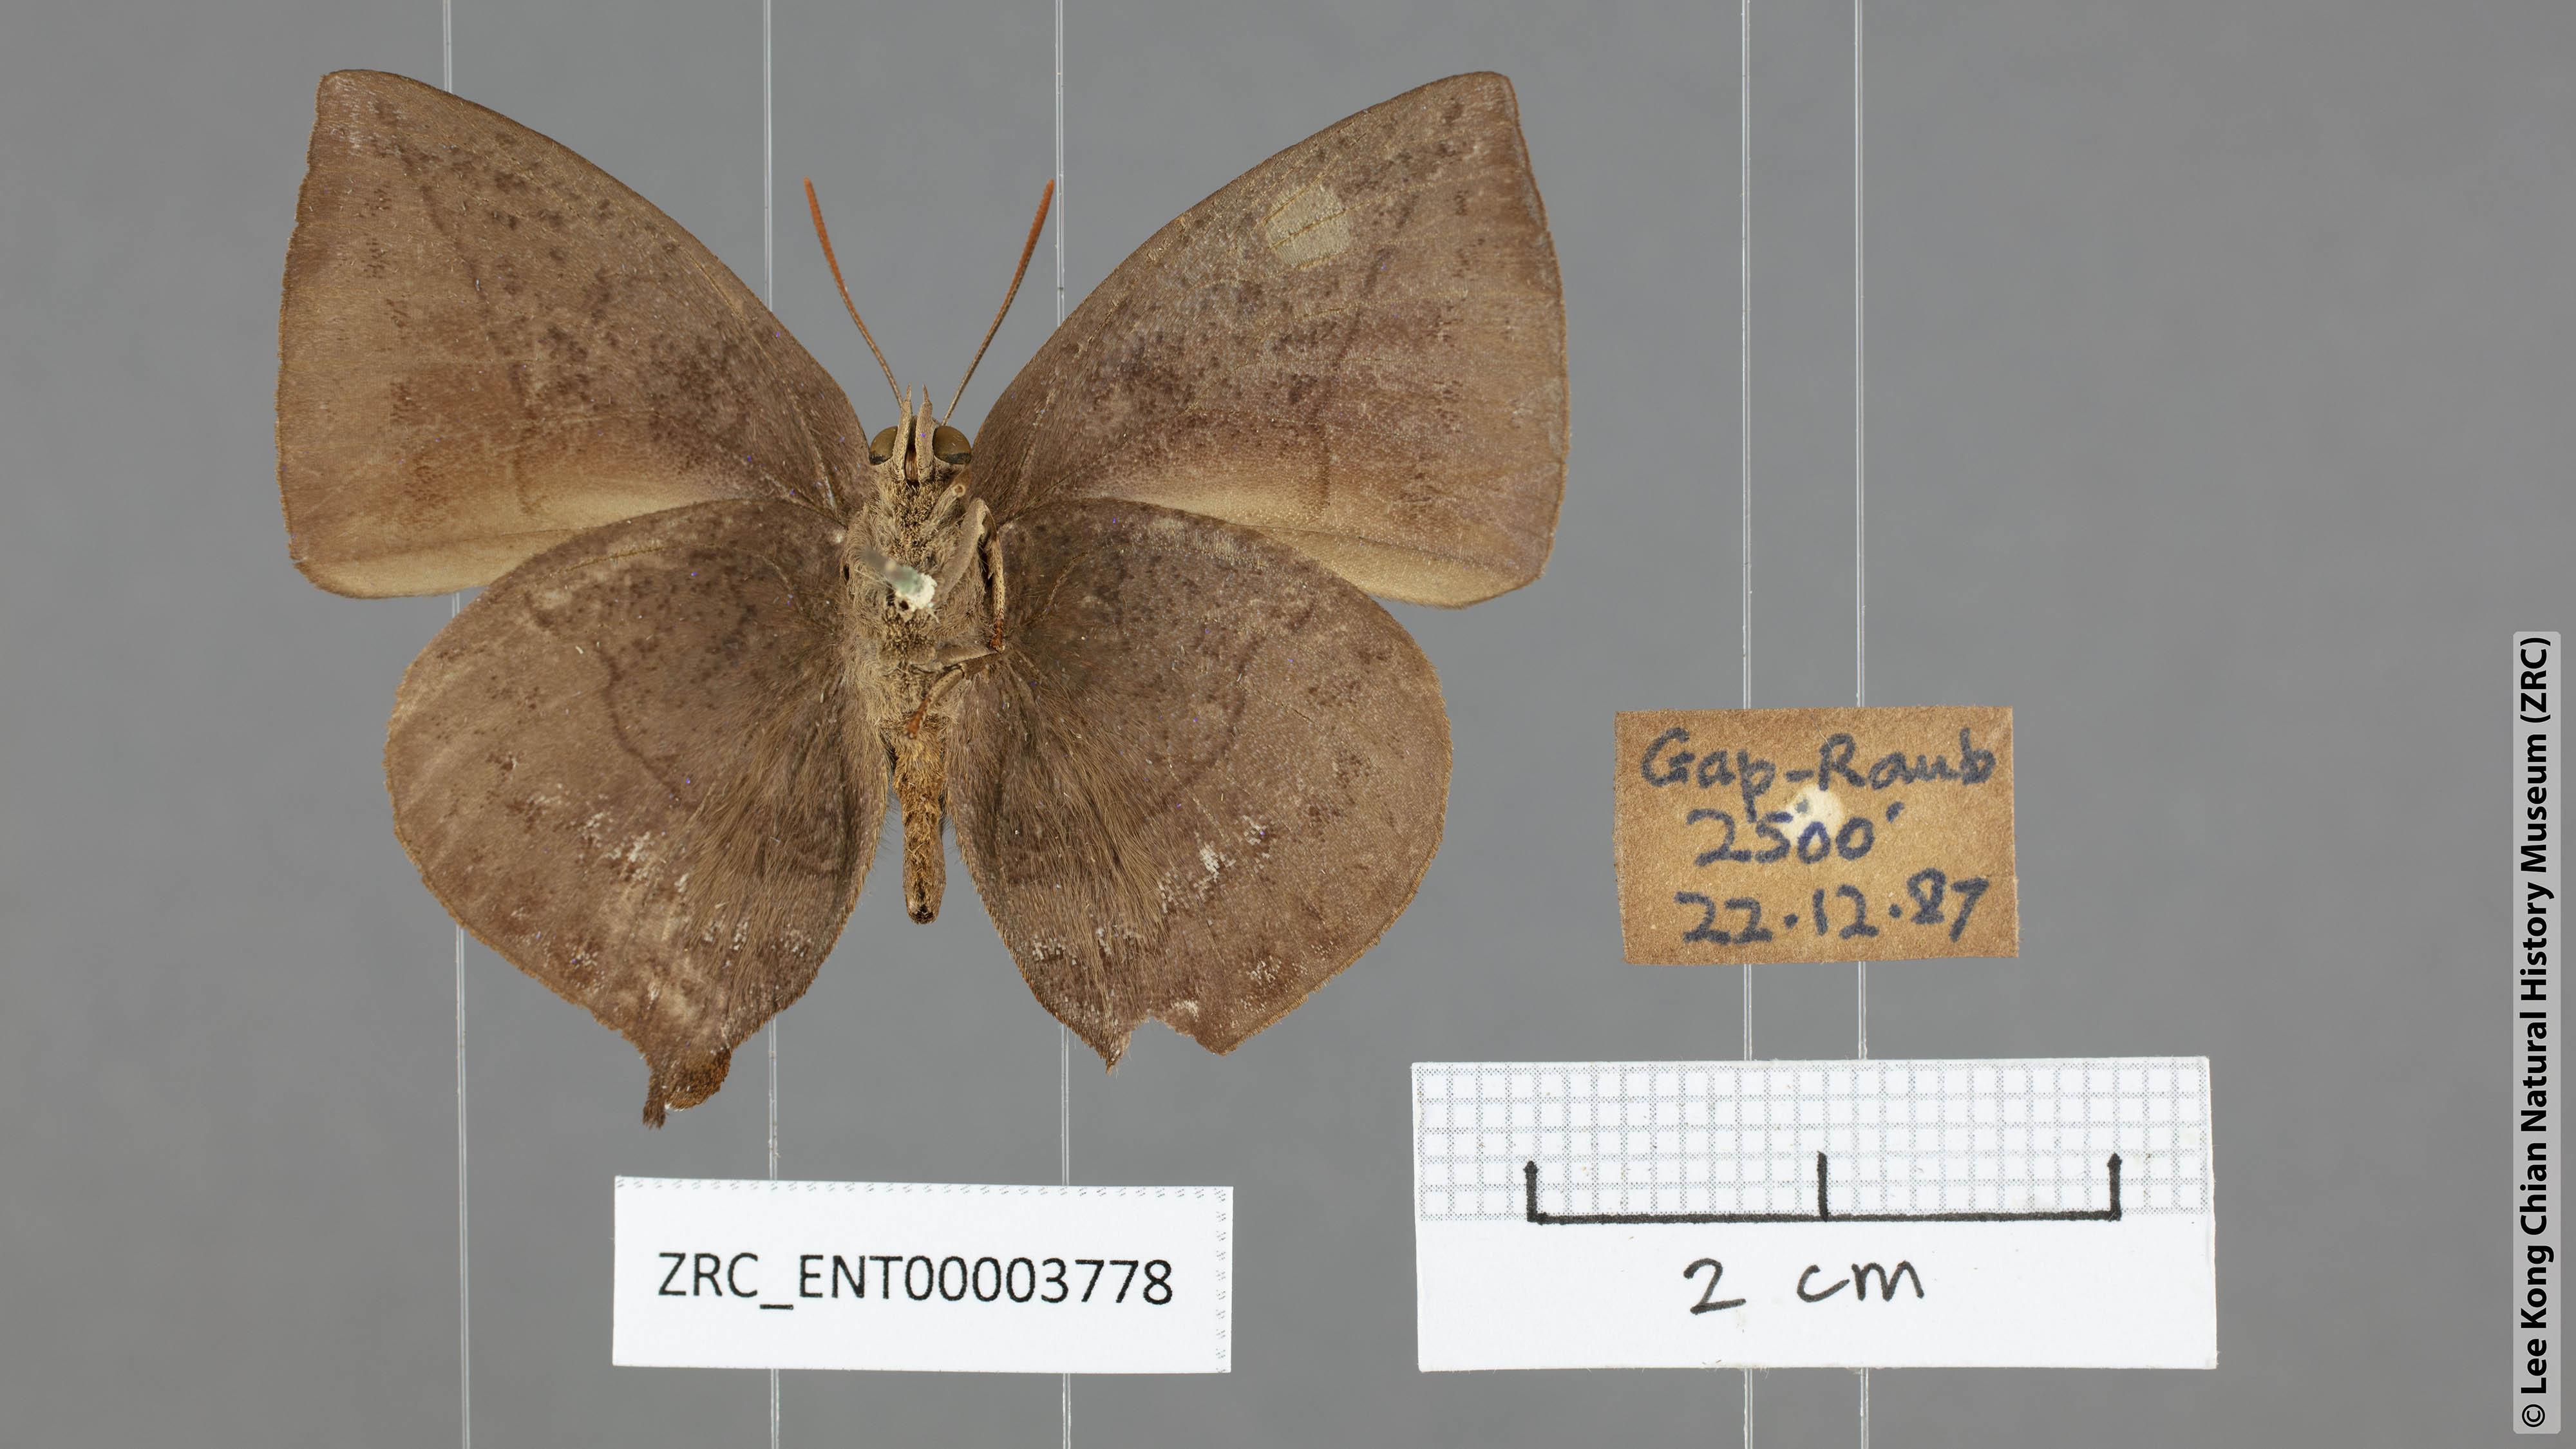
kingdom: Animalia
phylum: Arthropoda
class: Insecta
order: Lepidoptera
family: Lycaenidae
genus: Amblypodia
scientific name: Amblypodia narada
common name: Blue leaf blue
